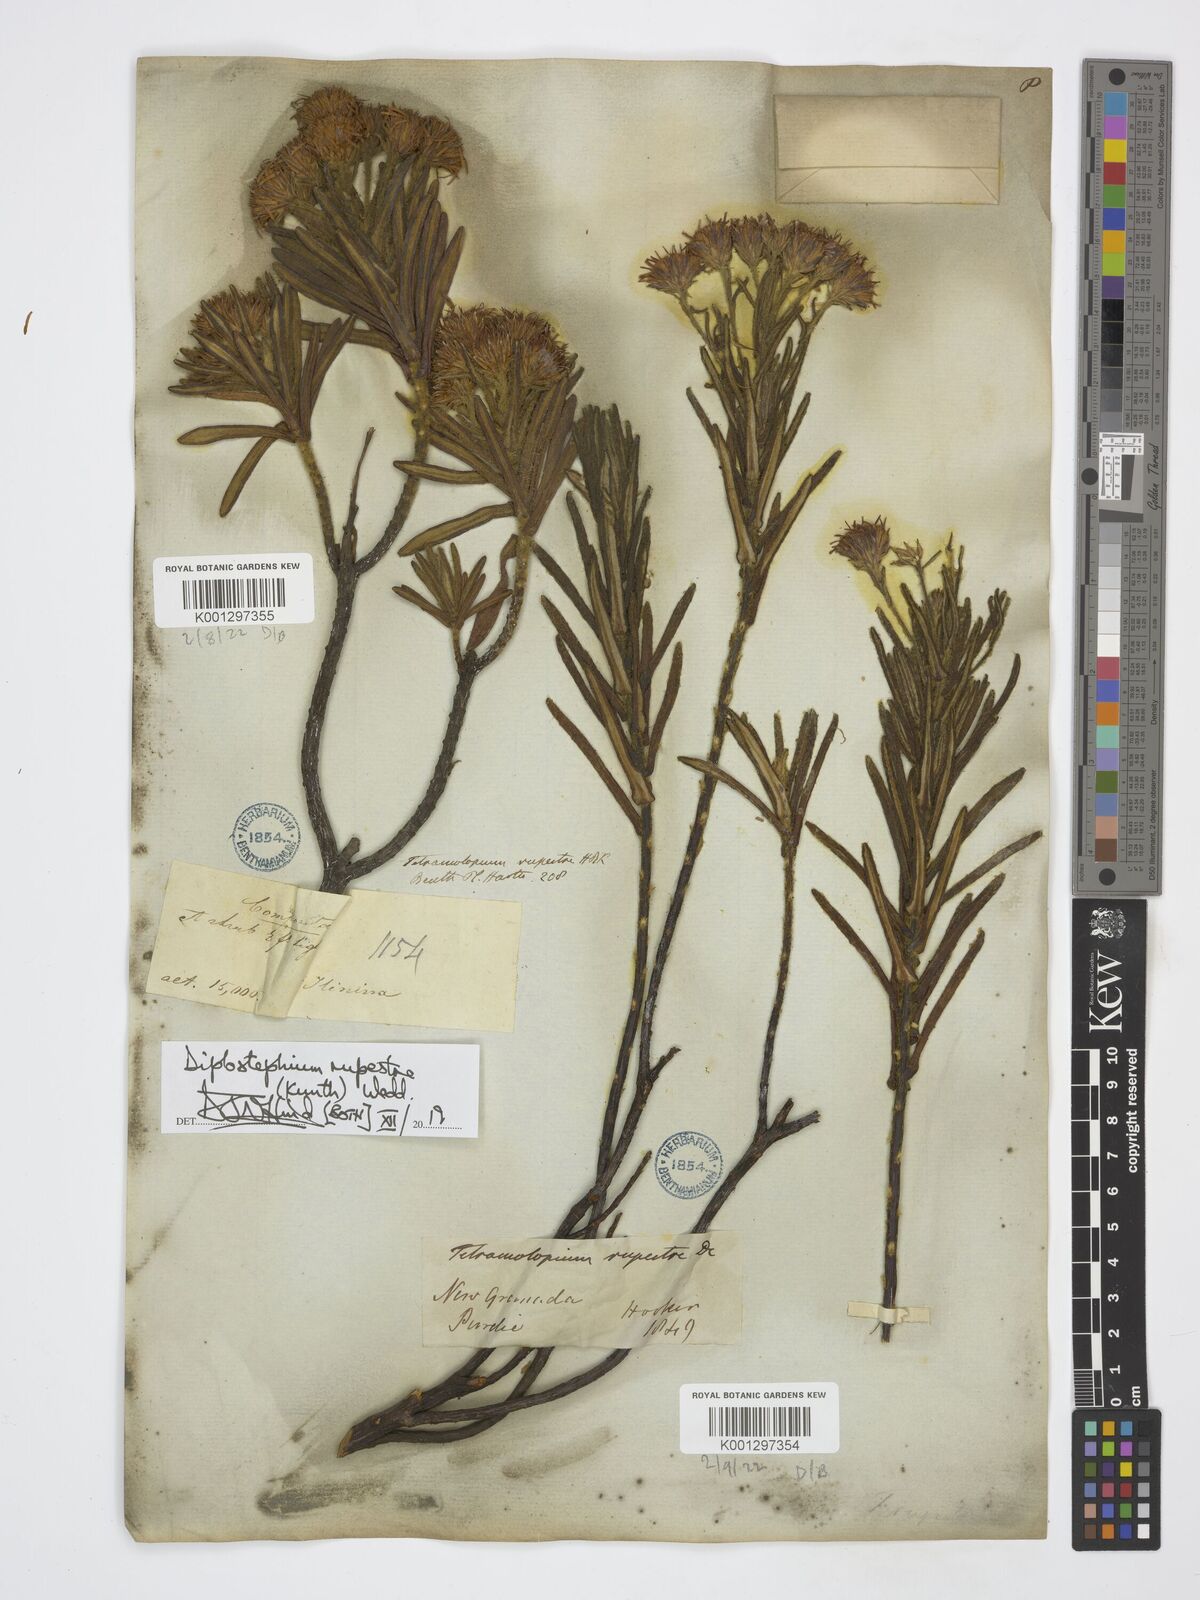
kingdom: Plantae
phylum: Tracheophyta
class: Magnoliopsida
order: Asterales
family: Asteraceae
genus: Linochilus
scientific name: Linochilus rupestris
